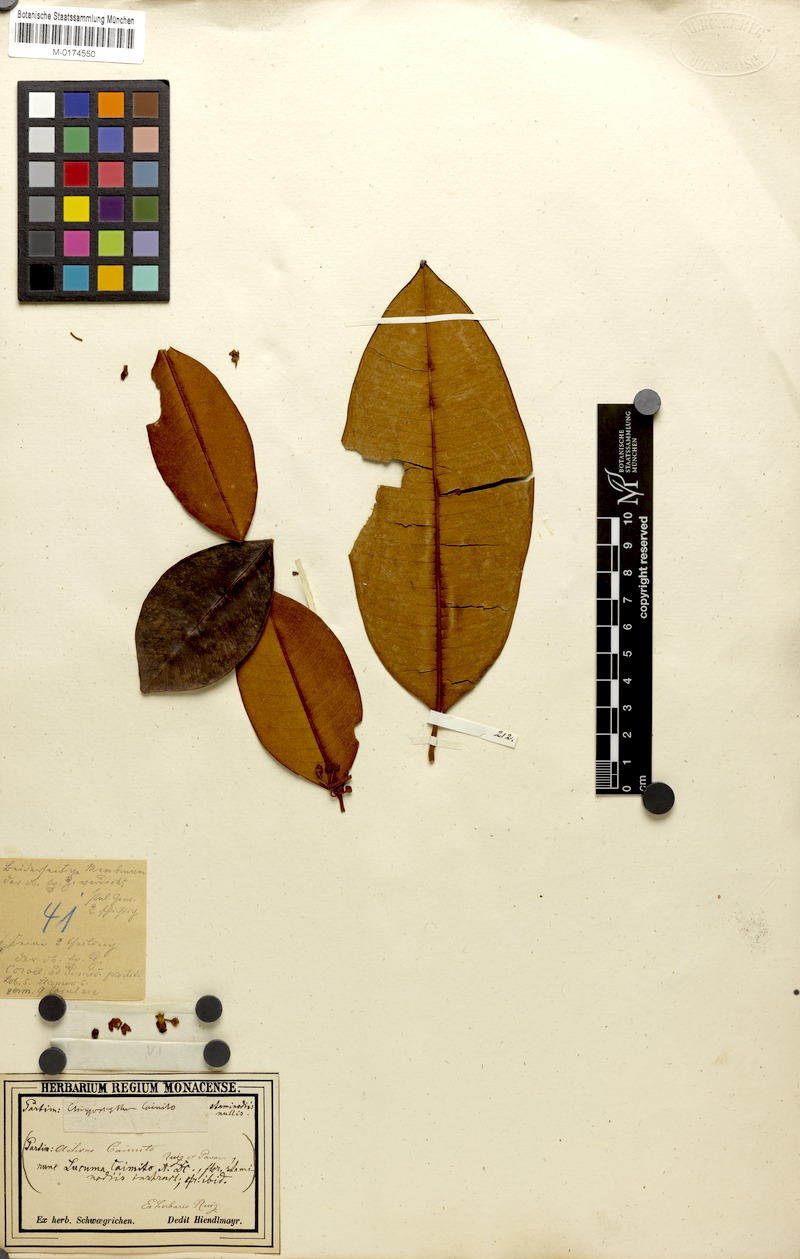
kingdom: Plantae
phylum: Tracheophyta
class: Magnoliopsida
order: Ericales
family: Sapotaceae
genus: Pouteria
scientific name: Pouteria caimito
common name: Caimito
